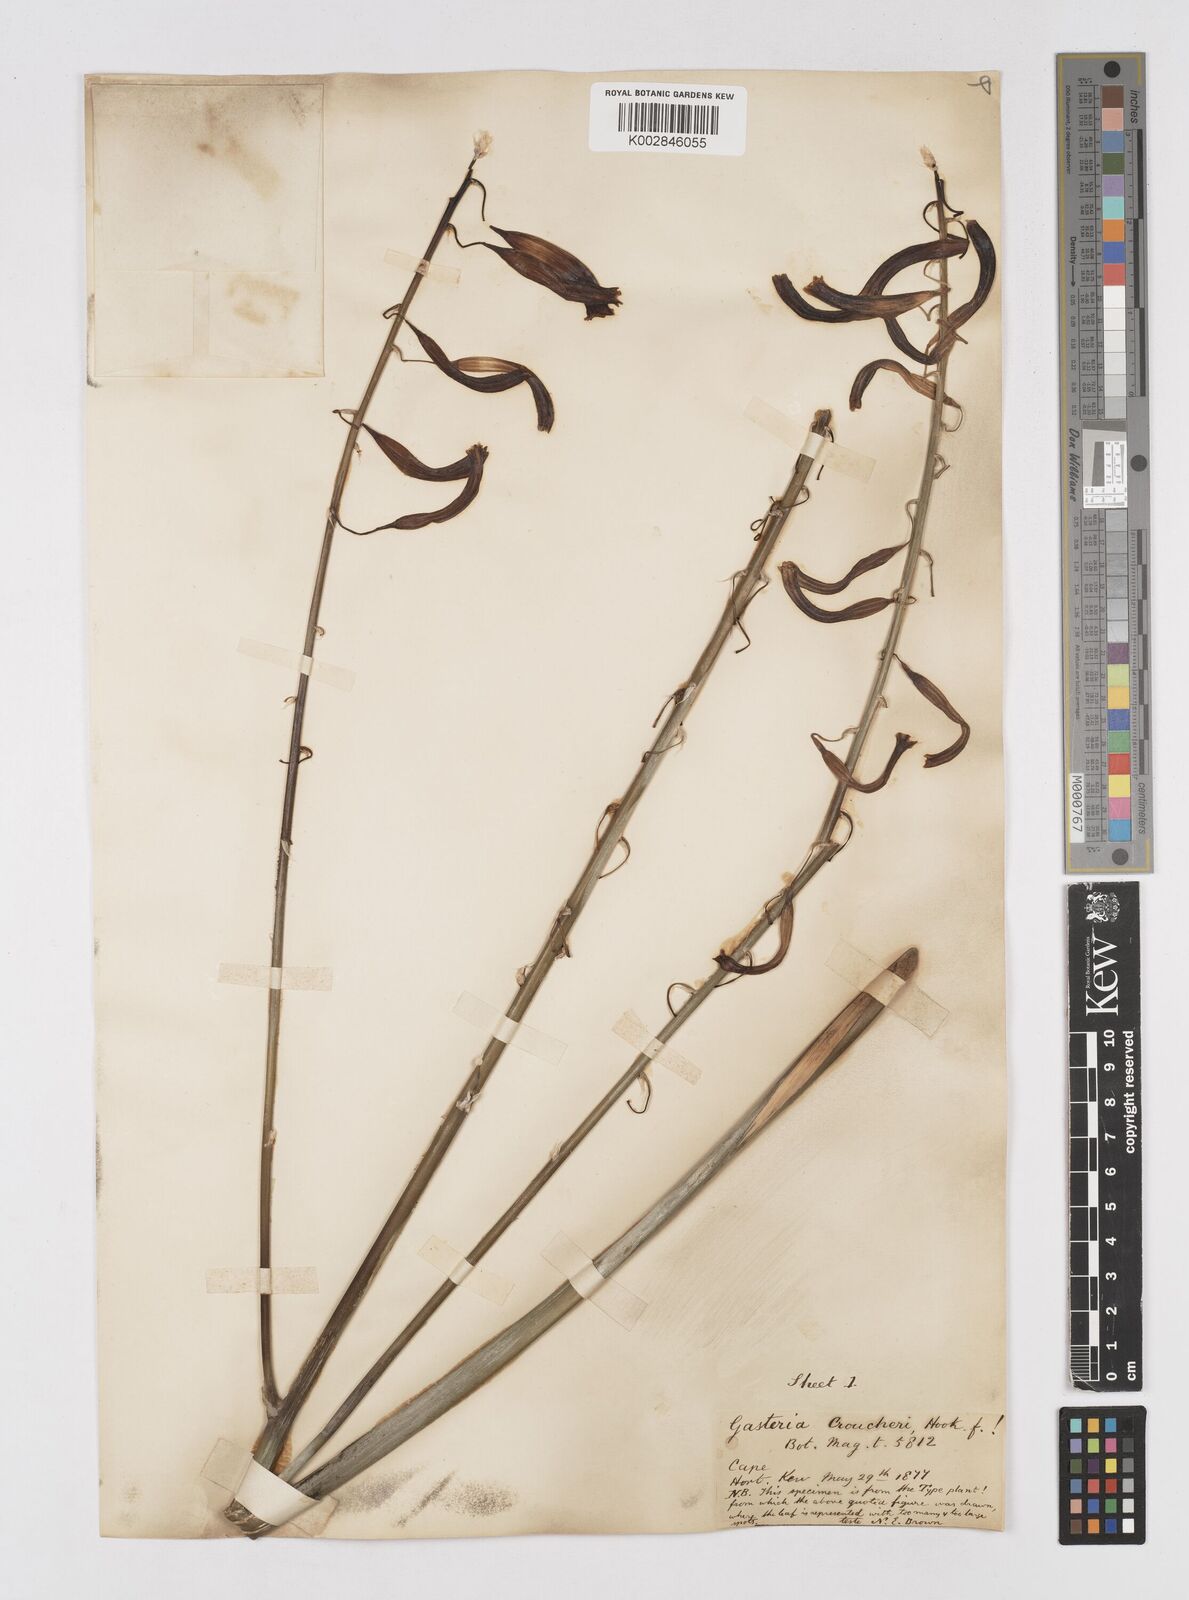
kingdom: Plantae
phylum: Tracheophyta
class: Liliopsida
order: Asparagales
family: Asphodelaceae
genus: Gasteria
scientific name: Gasteria croucheri
